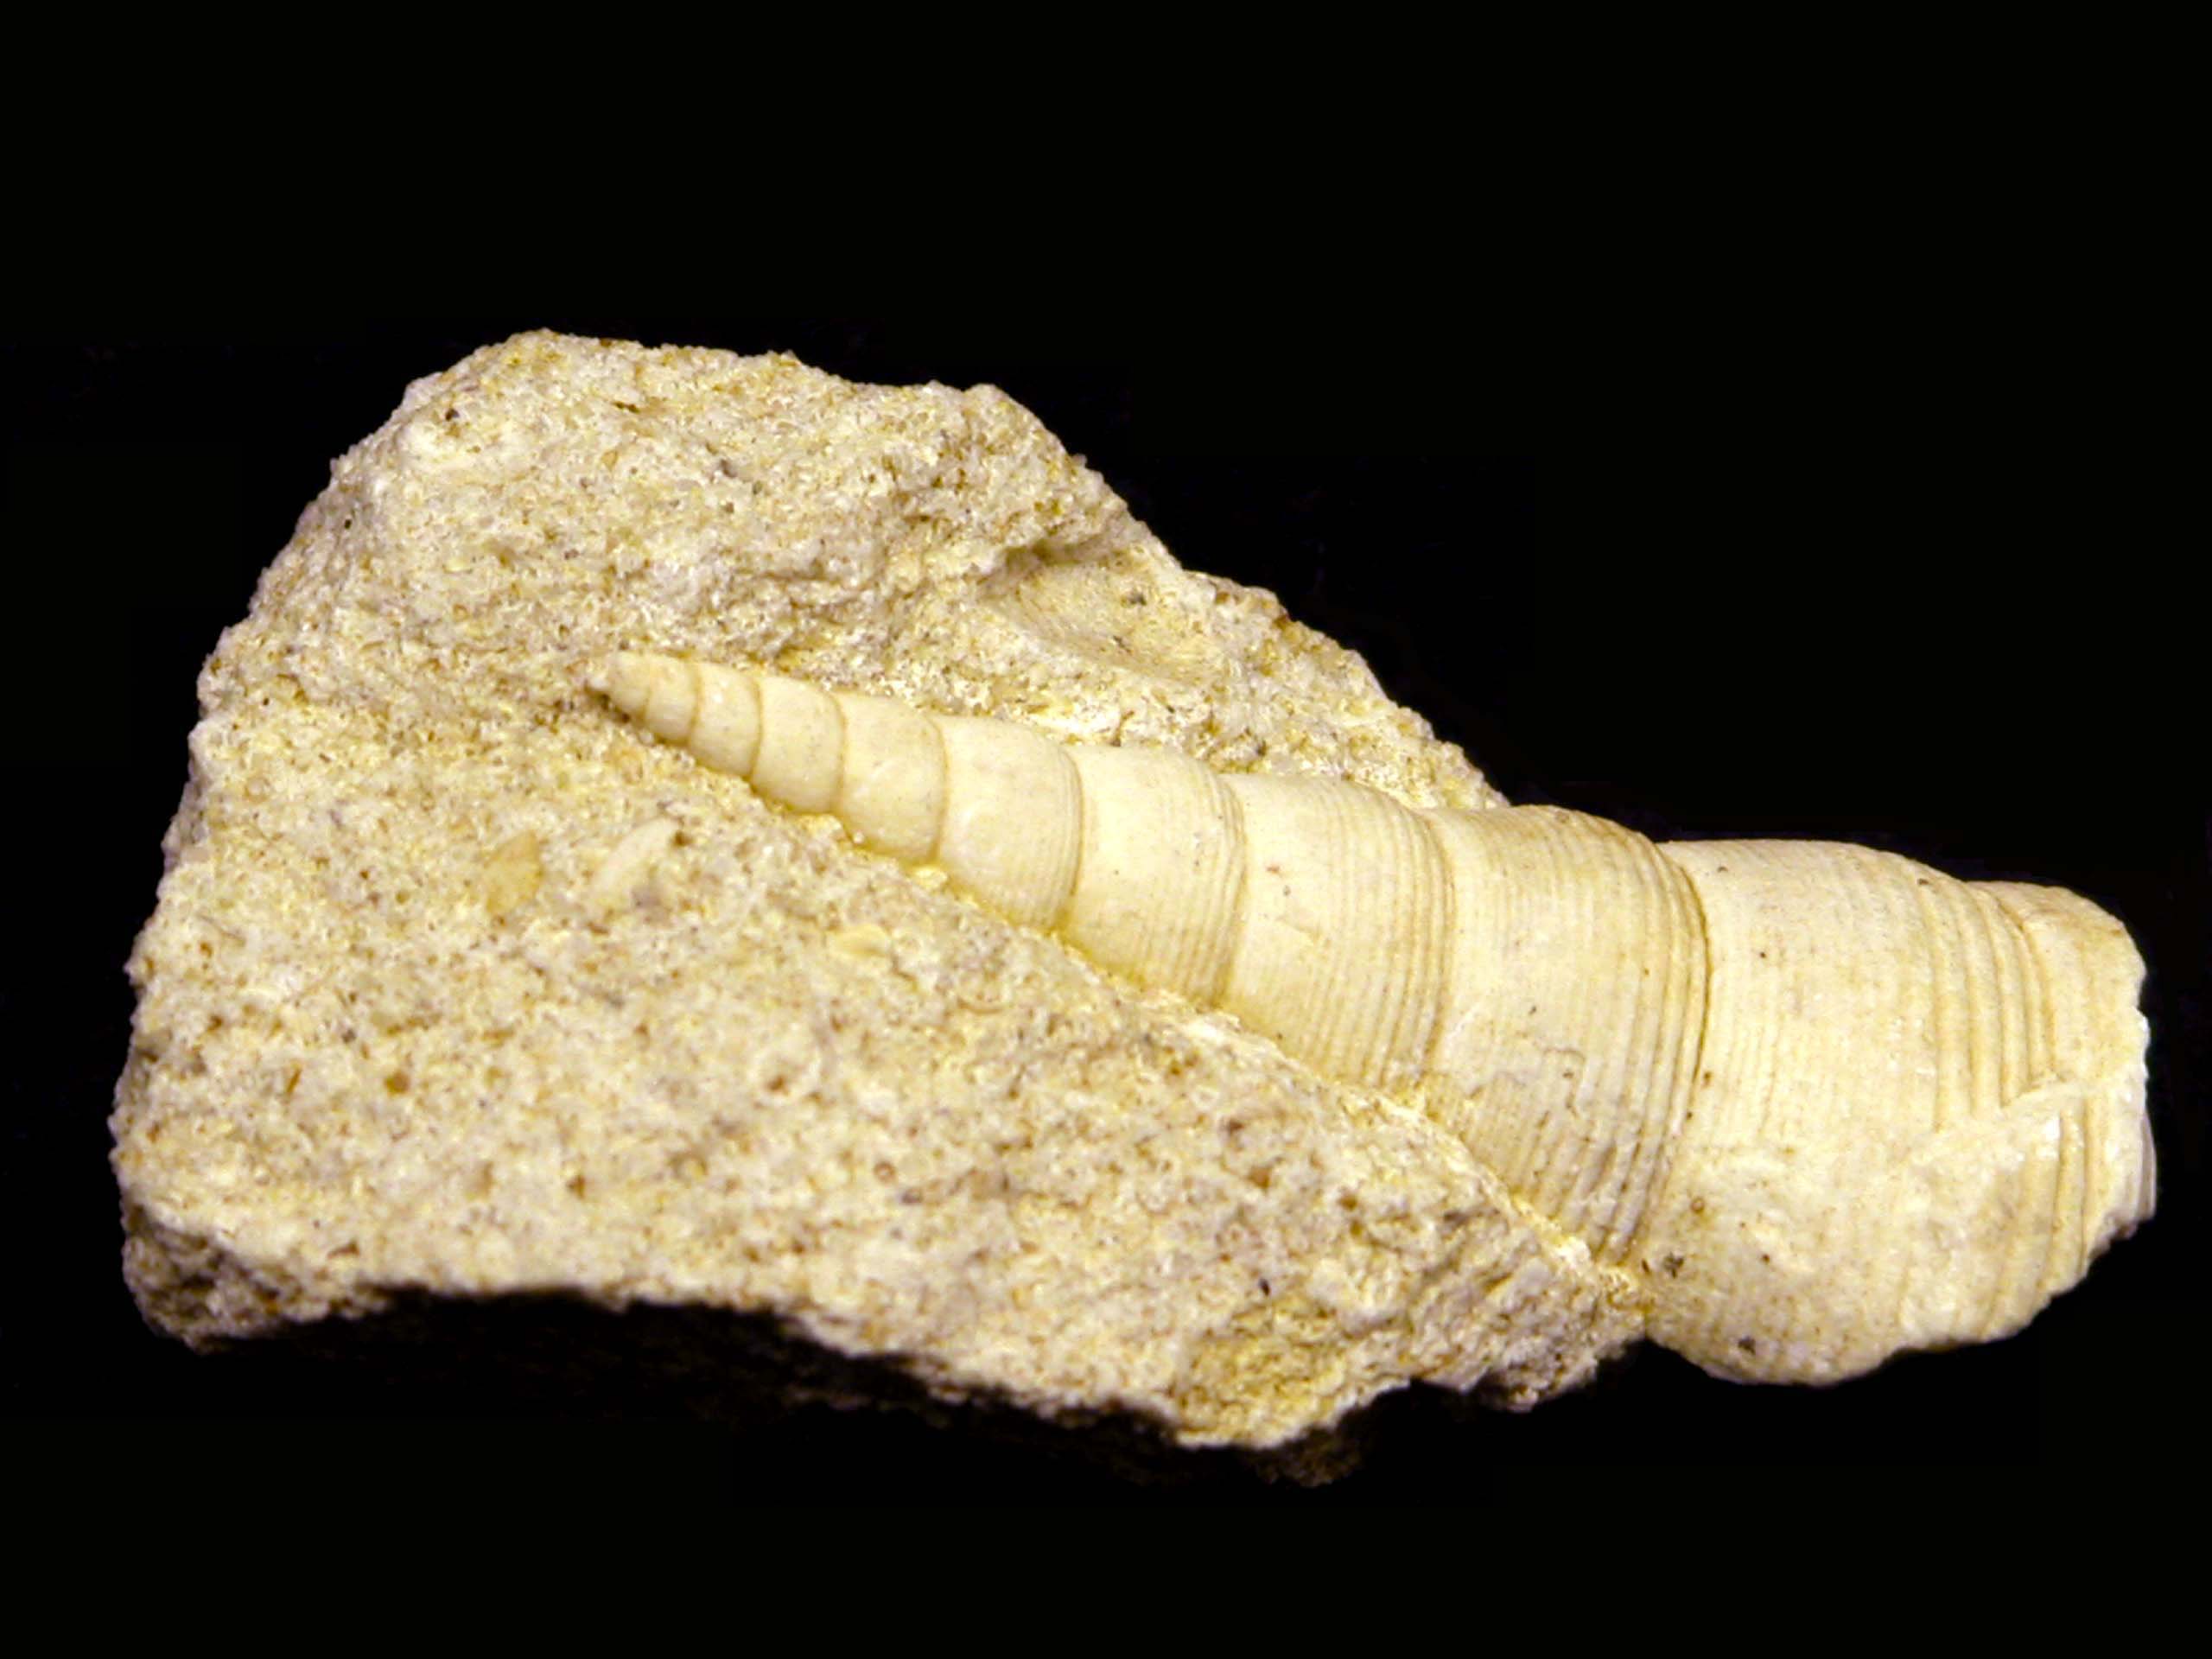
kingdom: Animalia
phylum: Mollusca
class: Gastropoda
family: Pseudomelaniidae
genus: Bourgetia
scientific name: Bourgetia Turritella deshayesea
